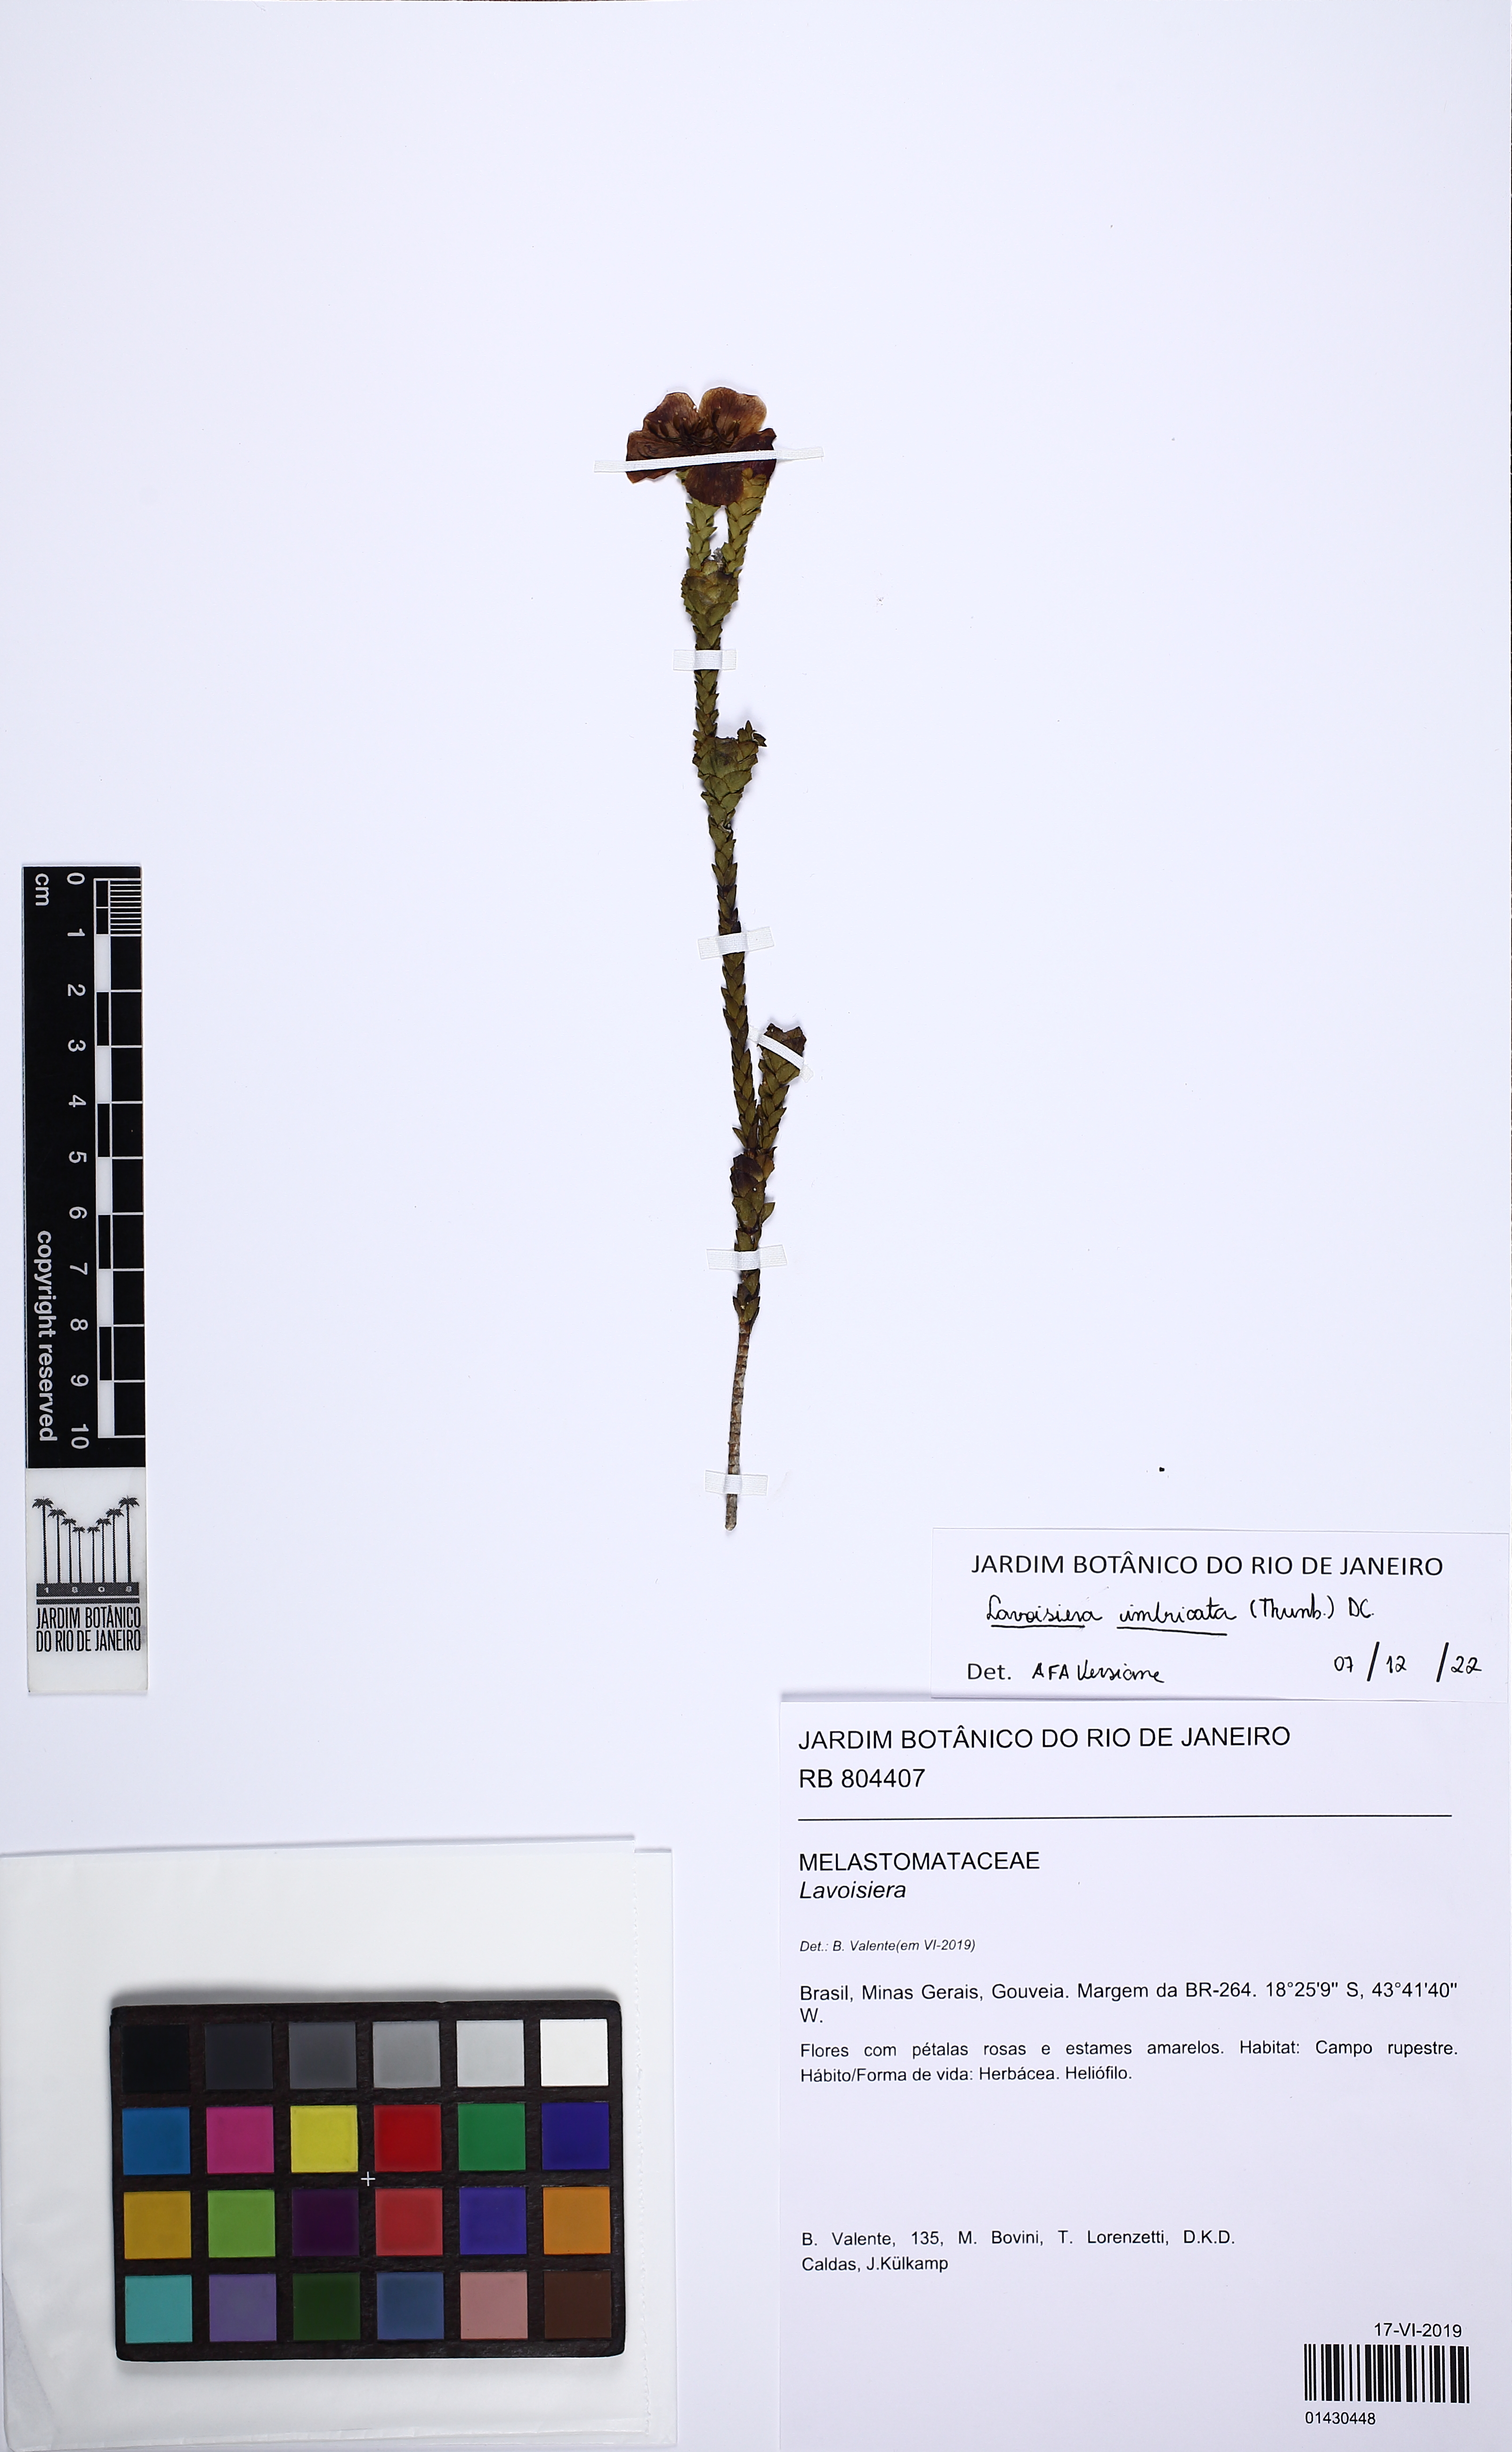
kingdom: Plantae
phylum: Tracheophyta
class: Magnoliopsida
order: Myrtales
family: Melastomataceae
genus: Microlicia
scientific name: Microlicia cataphracta
